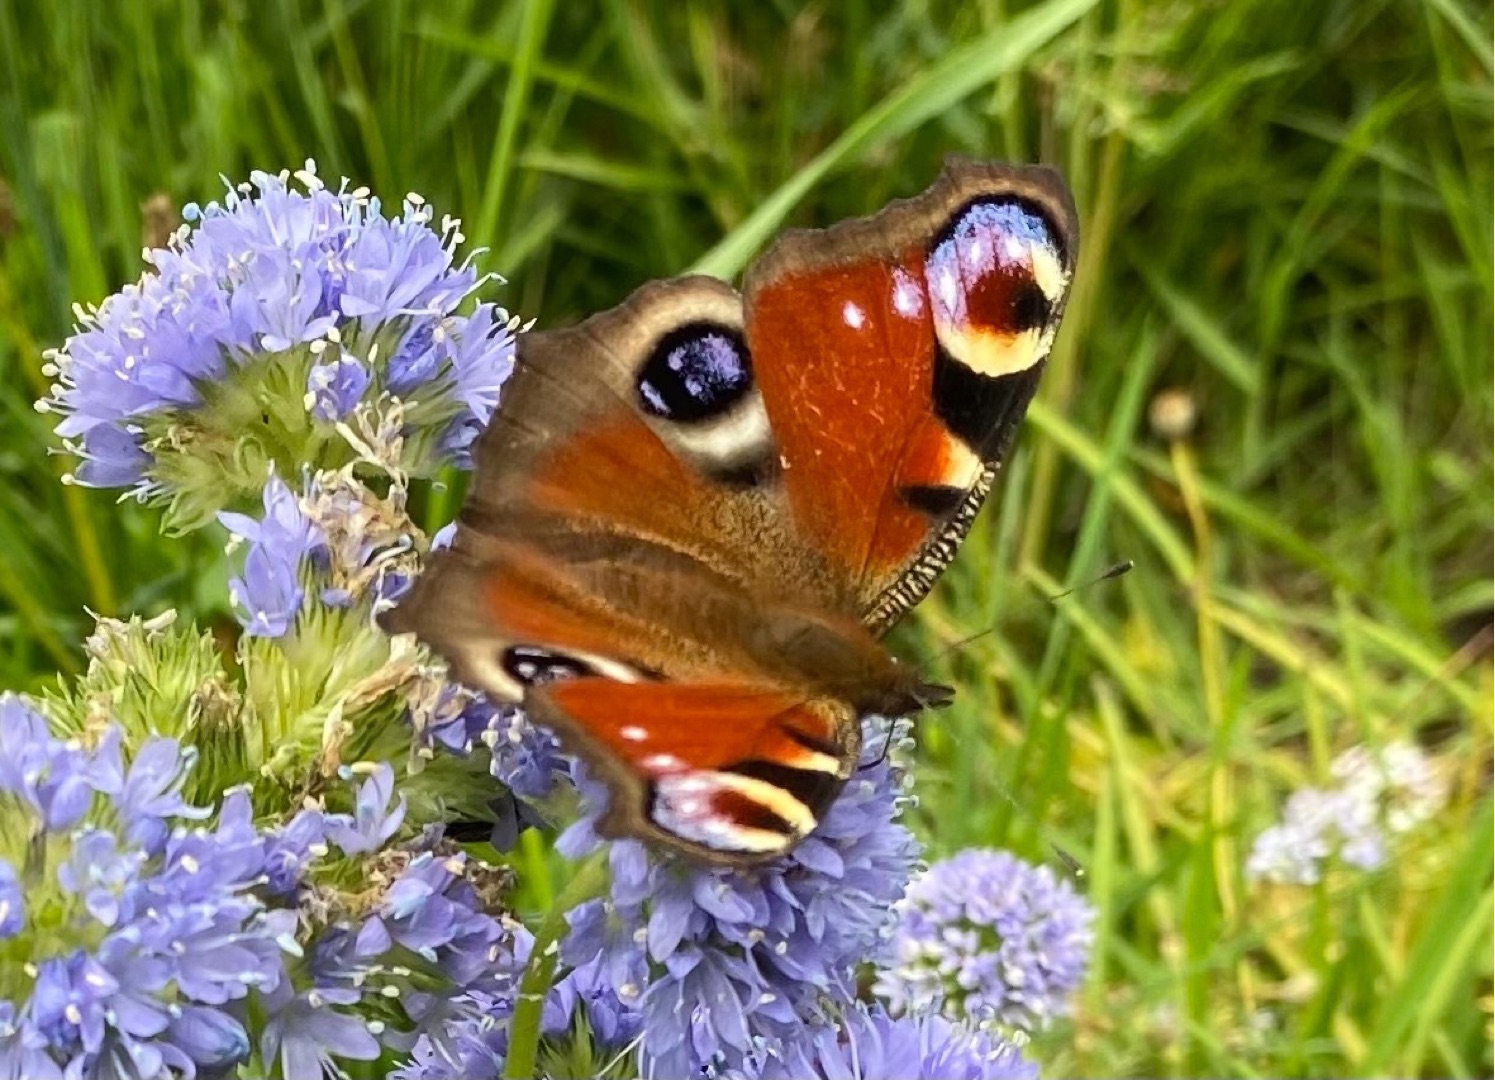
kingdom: Animalia
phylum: Arthropoda
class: Insecta
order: Lepidoptera
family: Nymphalidae
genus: Aglais
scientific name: Aglais io
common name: Dagpåfugleøje
